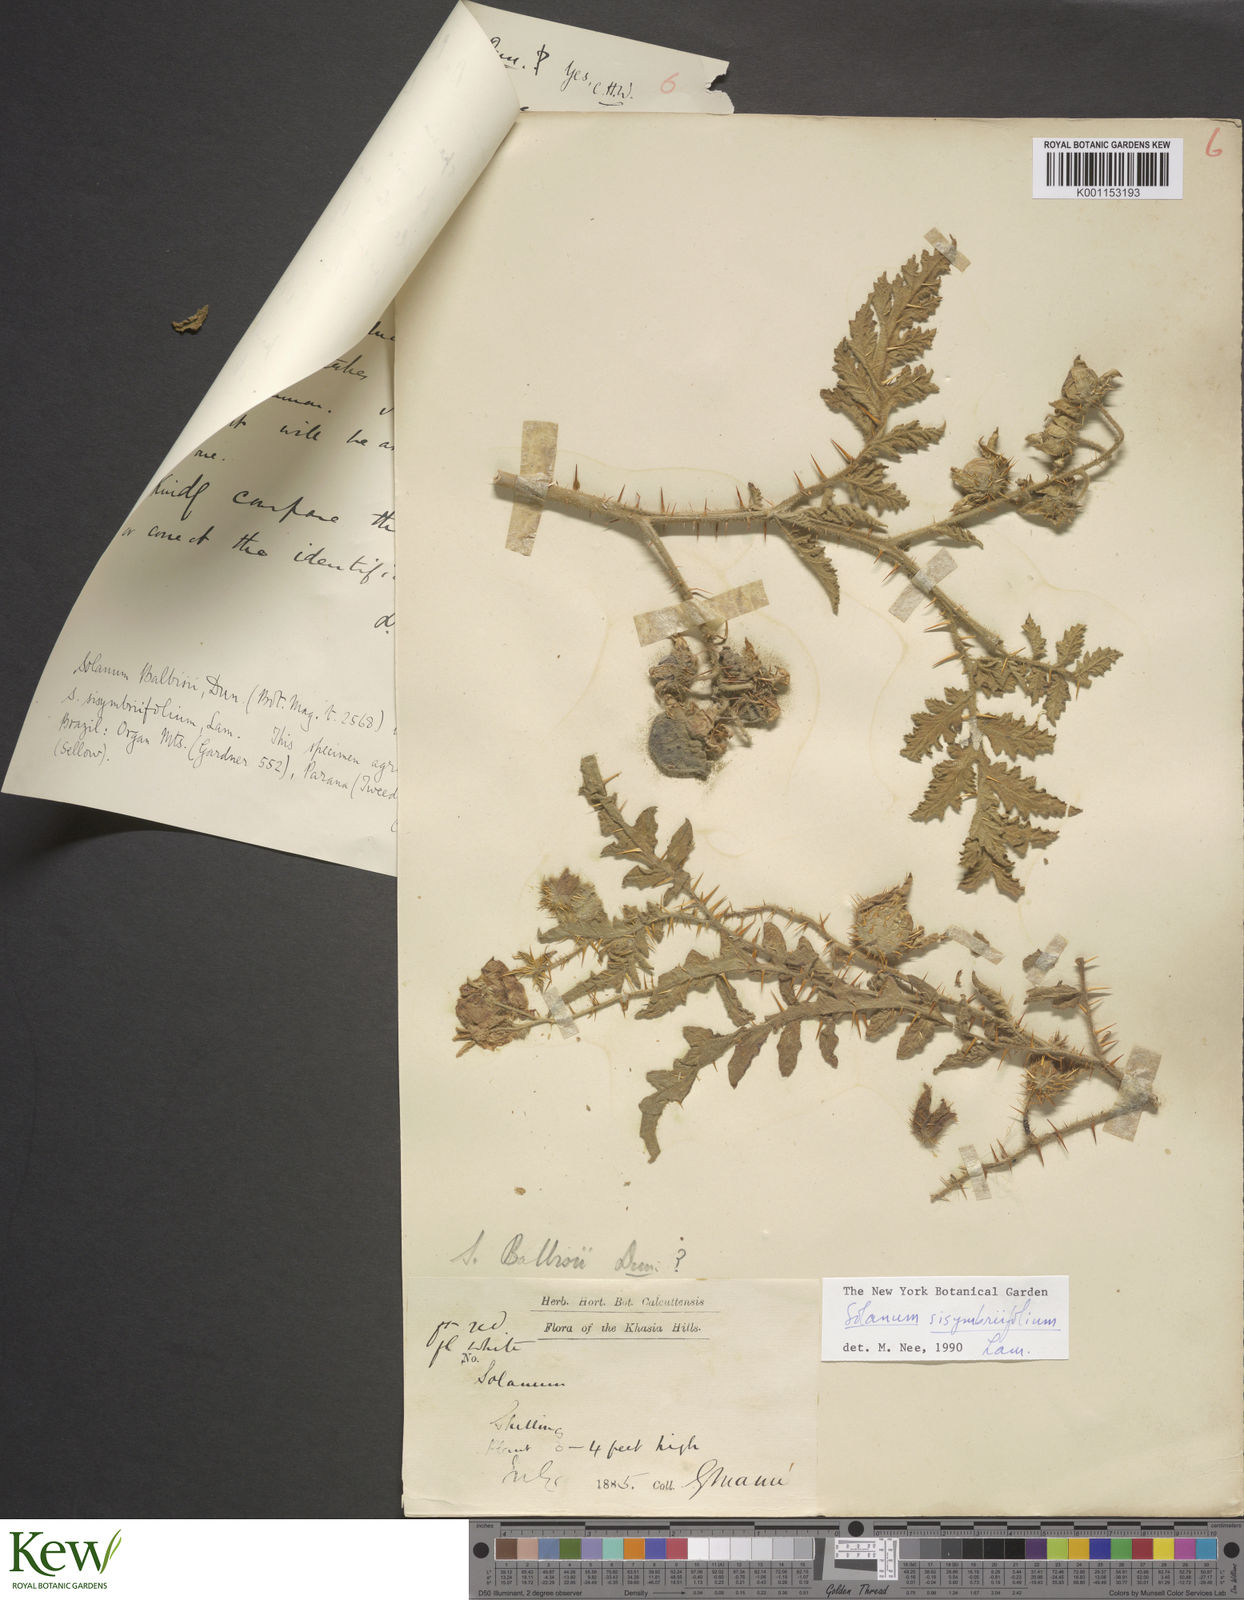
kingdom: Plantae
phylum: Tracheophyta
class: Magnoliopsida
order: Solanales
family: Solanaceae
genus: Solanum
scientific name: Solanum sisymbriifolium
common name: Red buffalo-bur
